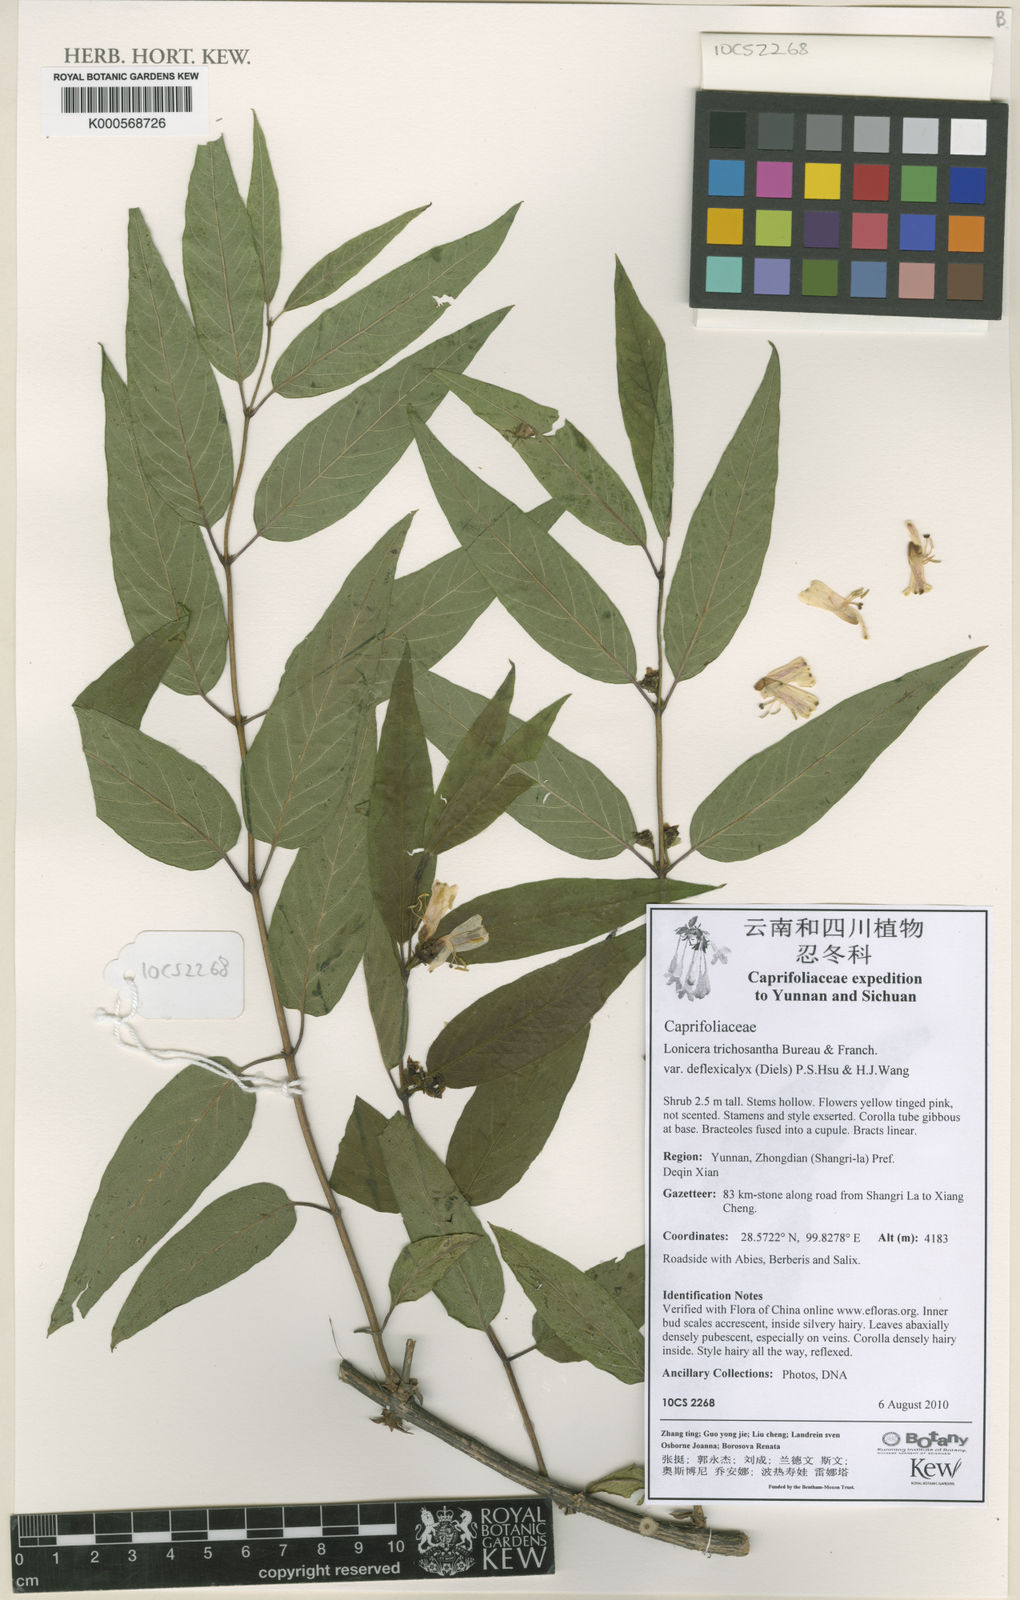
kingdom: Plantae
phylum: Tracheophyta
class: Magnoliopsida
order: Dipsacales
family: Caprifoliaceae
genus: Lonicera
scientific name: Lonicera trichosantha
